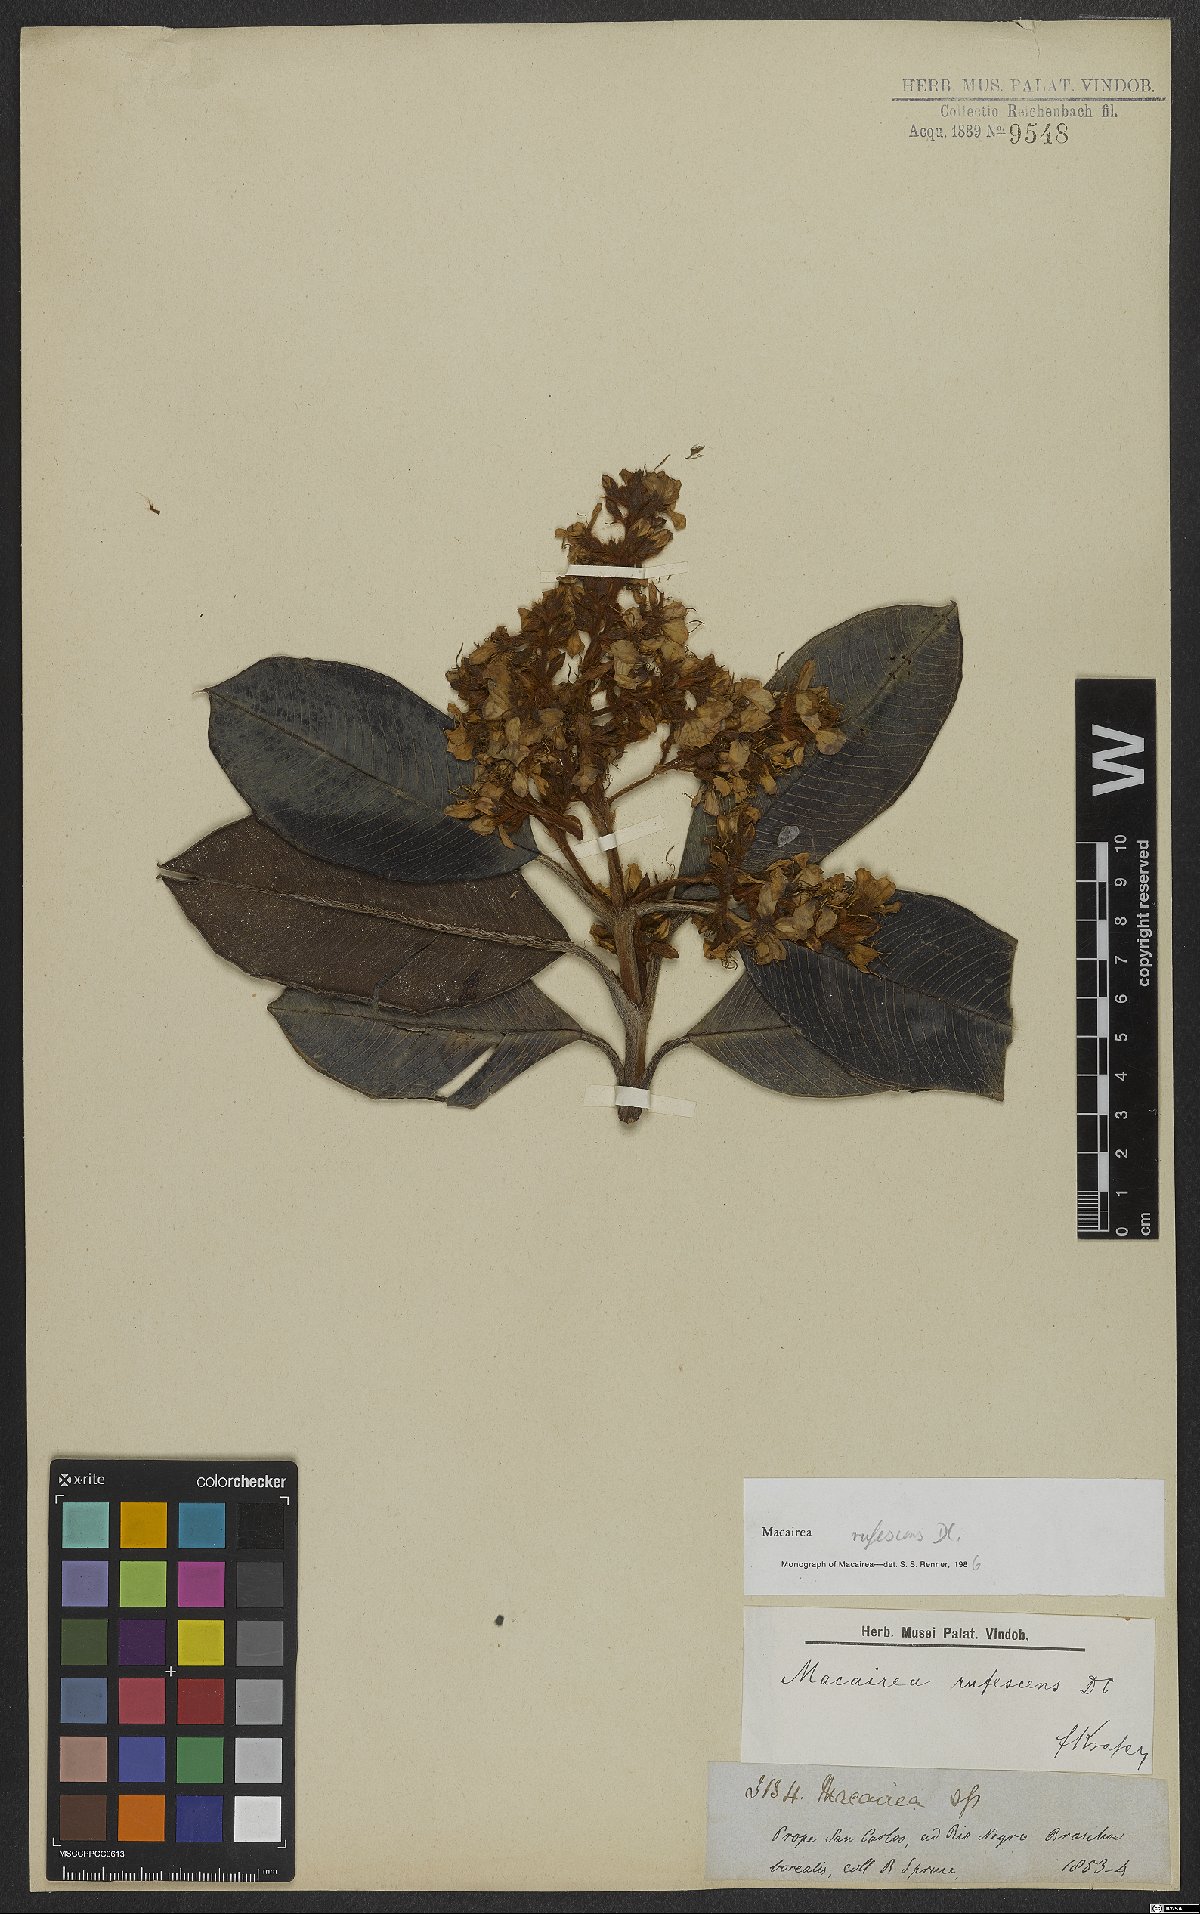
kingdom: Plantae
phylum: Tracheophyta
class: Magnoliopsida
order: Myrtales
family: Melastomataceae
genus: Macairea
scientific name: Macairea rufescens
